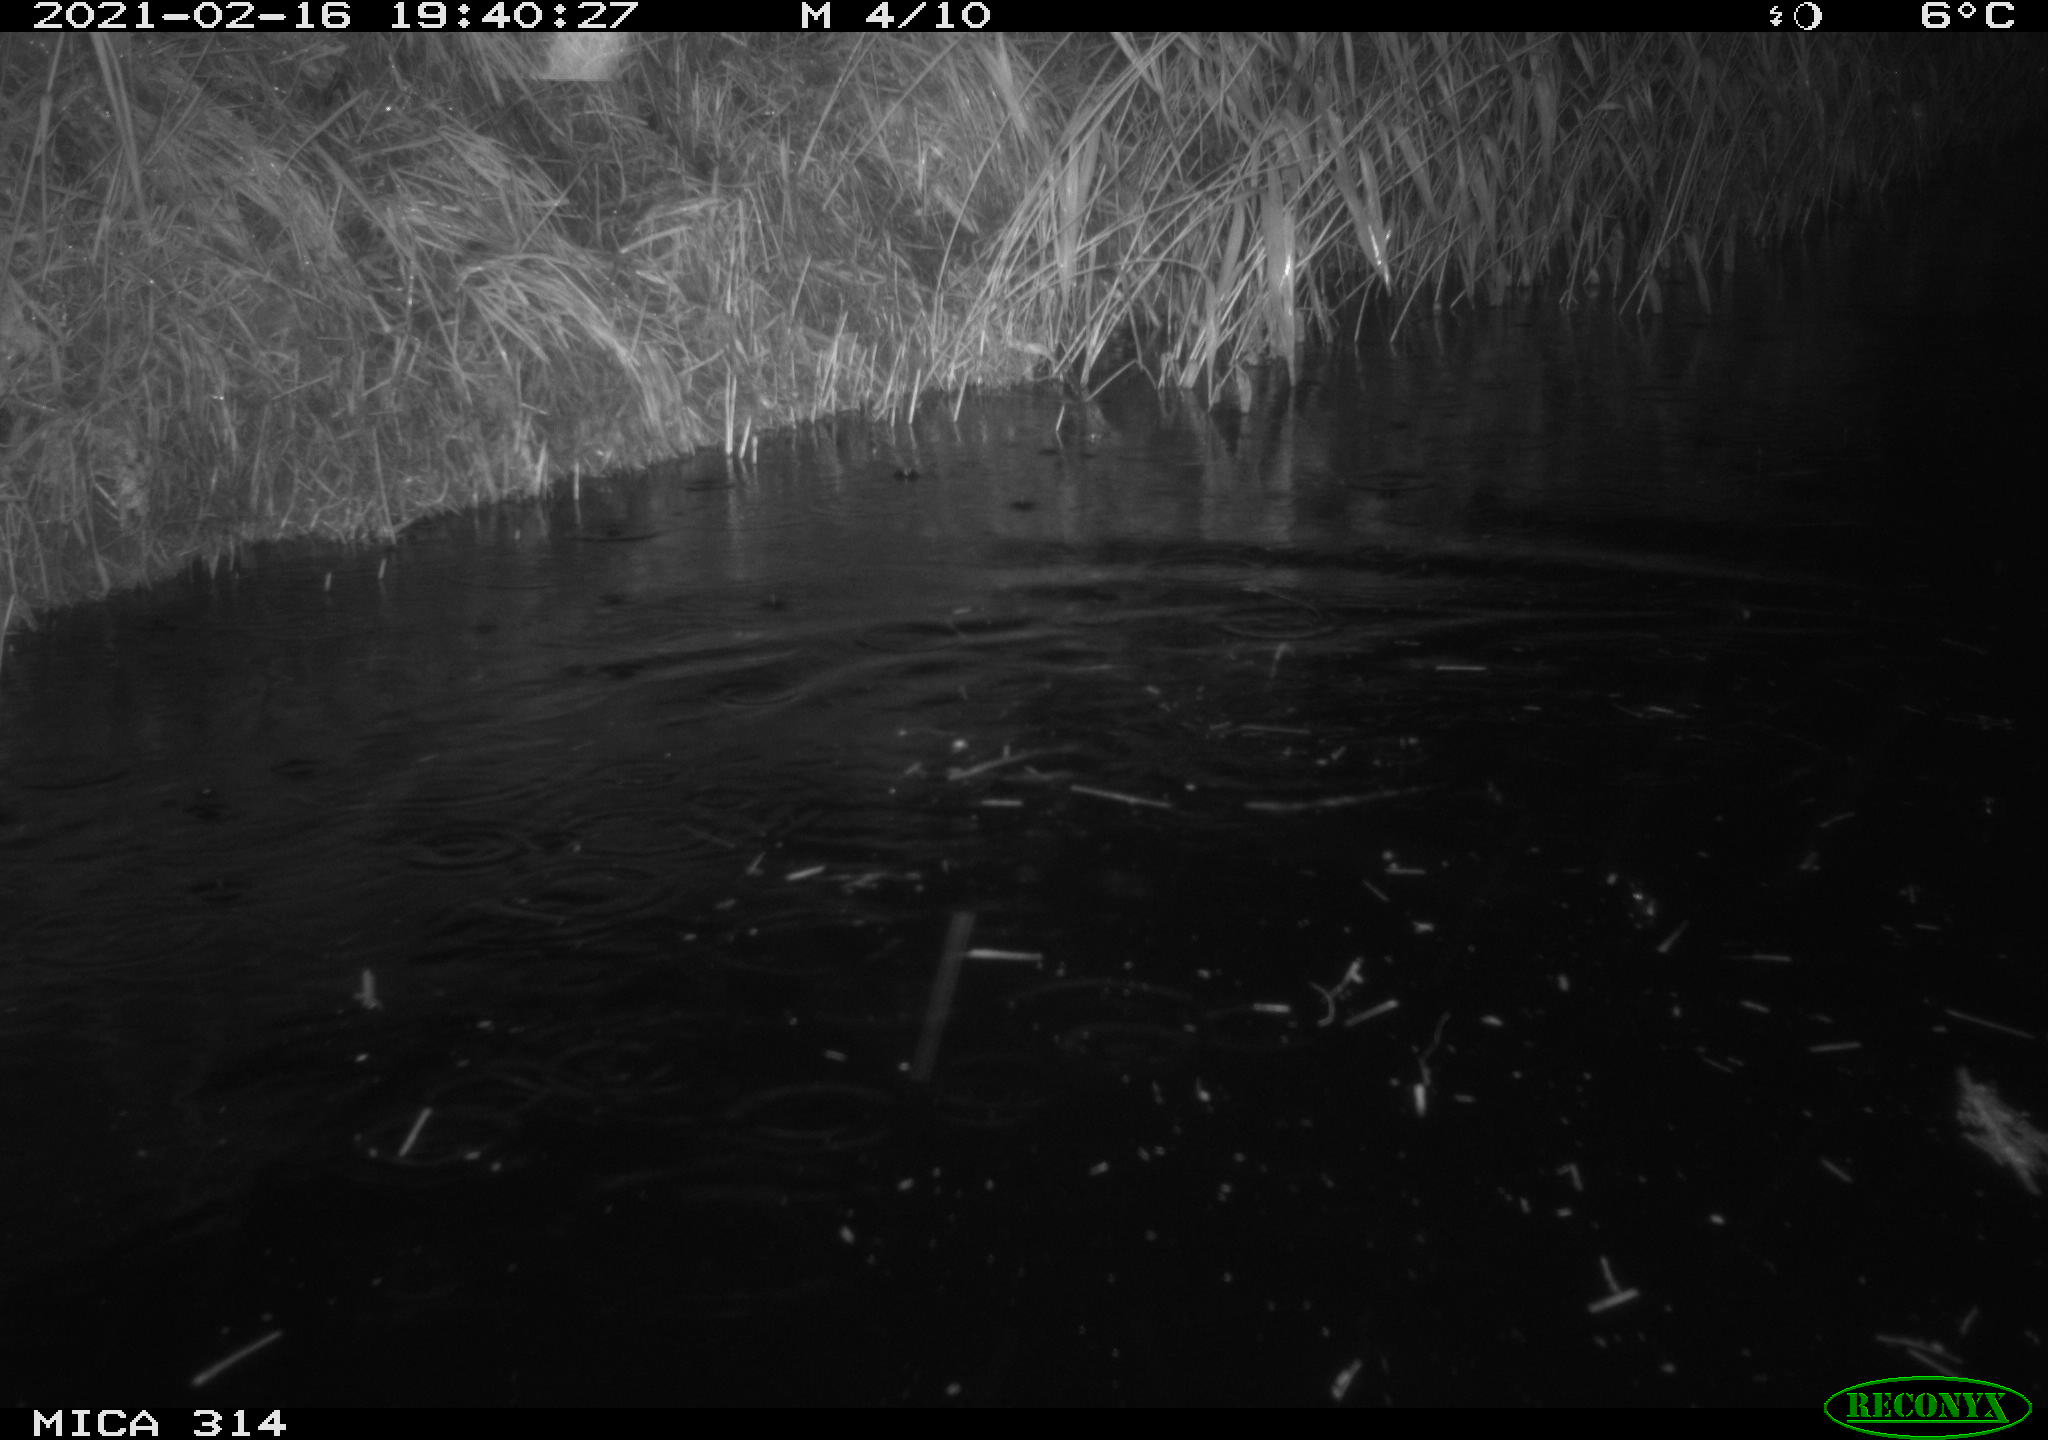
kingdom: Animalia
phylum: Chordata
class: Mammalia
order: Rodentia
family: Cricetidae
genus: Ondatra
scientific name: Ondatra zibethicus
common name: Muskrat
